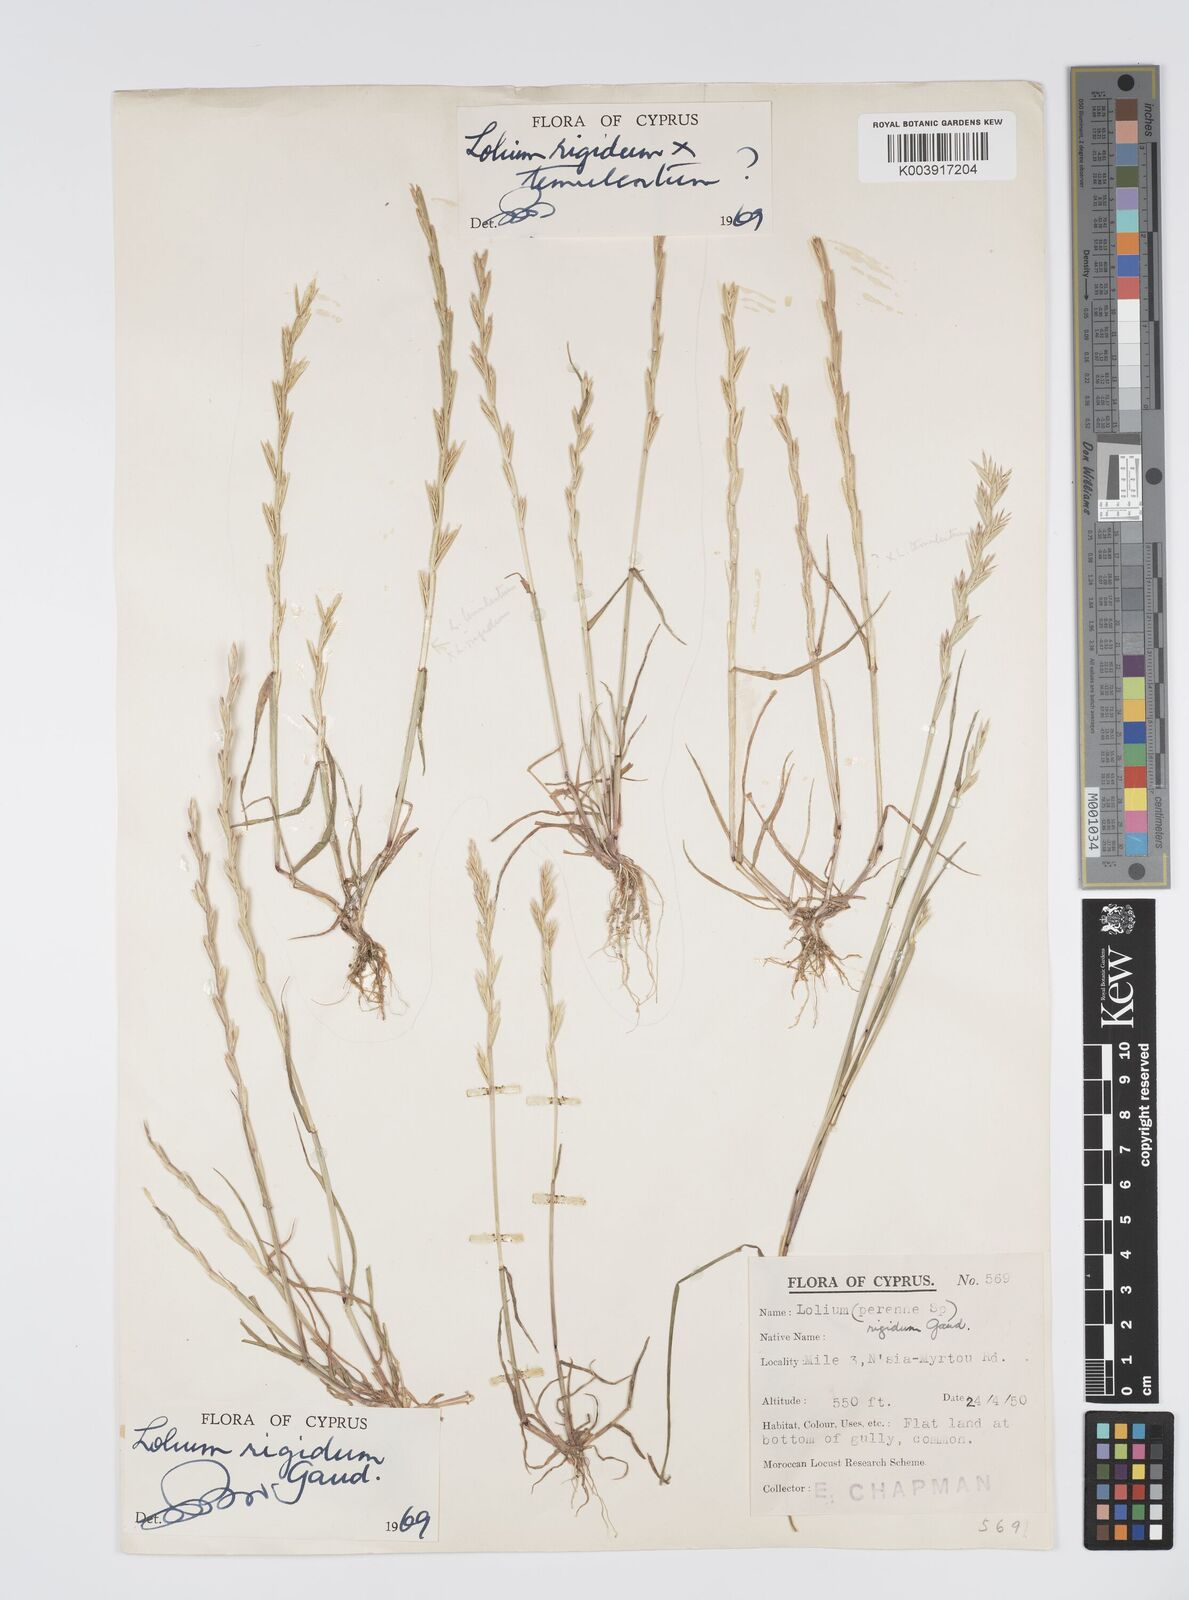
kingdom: Plantae
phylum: Tracheophyta
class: Liliopsida
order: Poales
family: Poaceae
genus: Lolium
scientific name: Lolium rigidum
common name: Wimmera ryegrass
